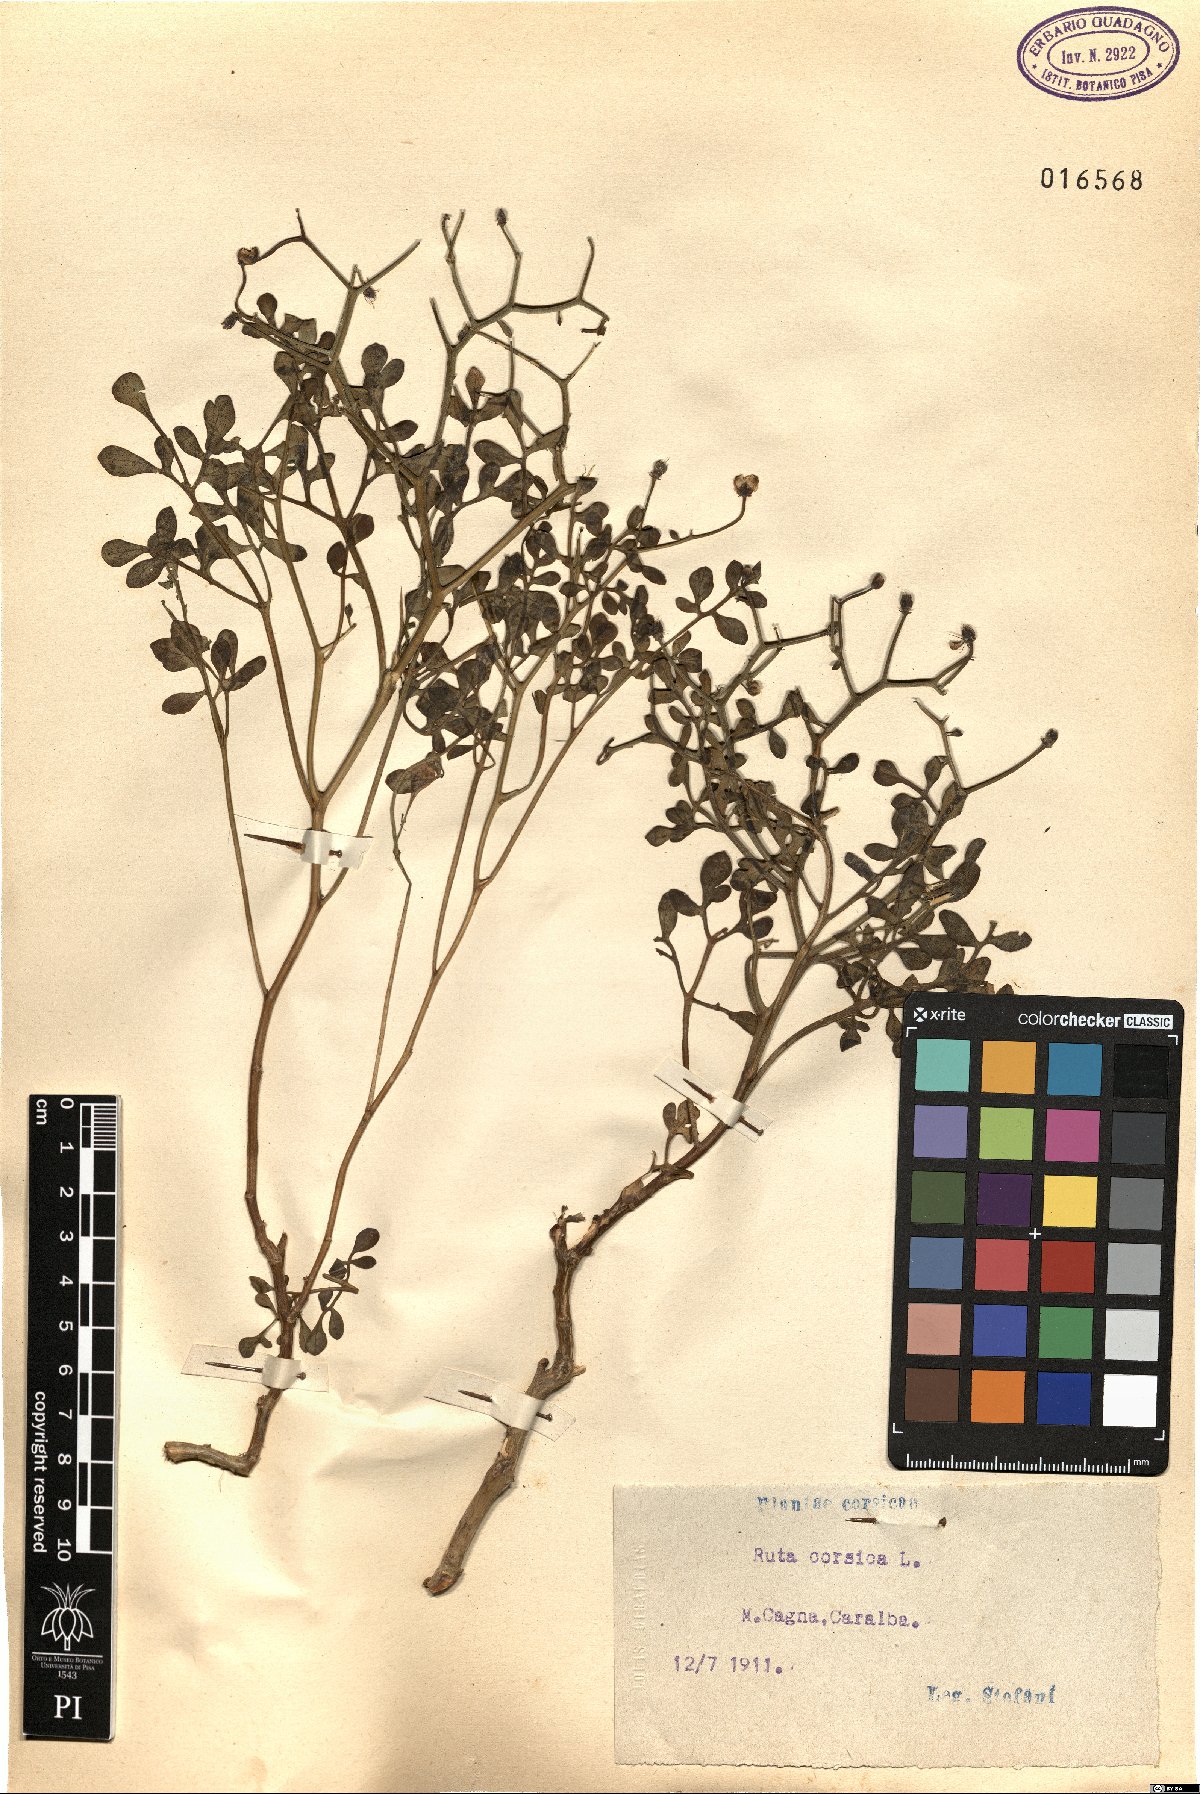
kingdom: Plantae
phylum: Tracheophyta
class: Magnoliopsida
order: Sapindales
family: Rutaceae
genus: Ruta
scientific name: Ruta corsica
